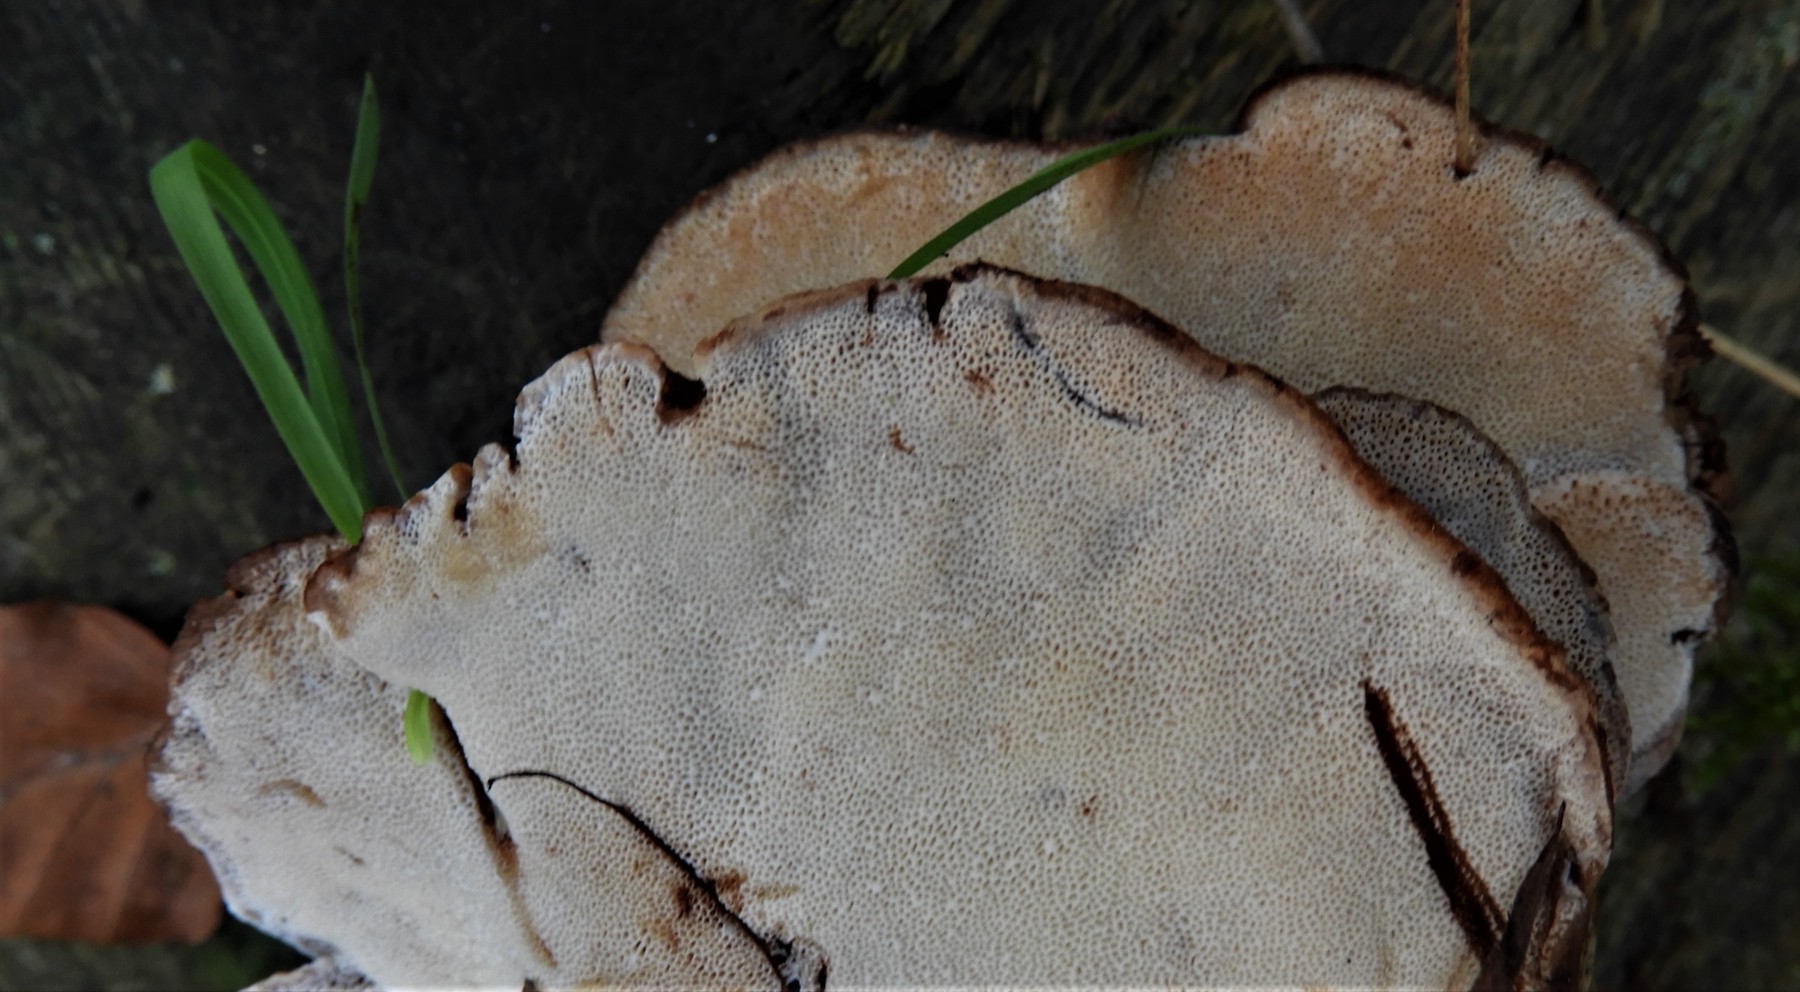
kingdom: Fungi
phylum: Basidiomycota
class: Agaricomycetes
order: Polyporales
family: Ischnodermataceae
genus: Ischnoderma
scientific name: Ischnoderma benzoinum
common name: gran-tjæreporesvamp
